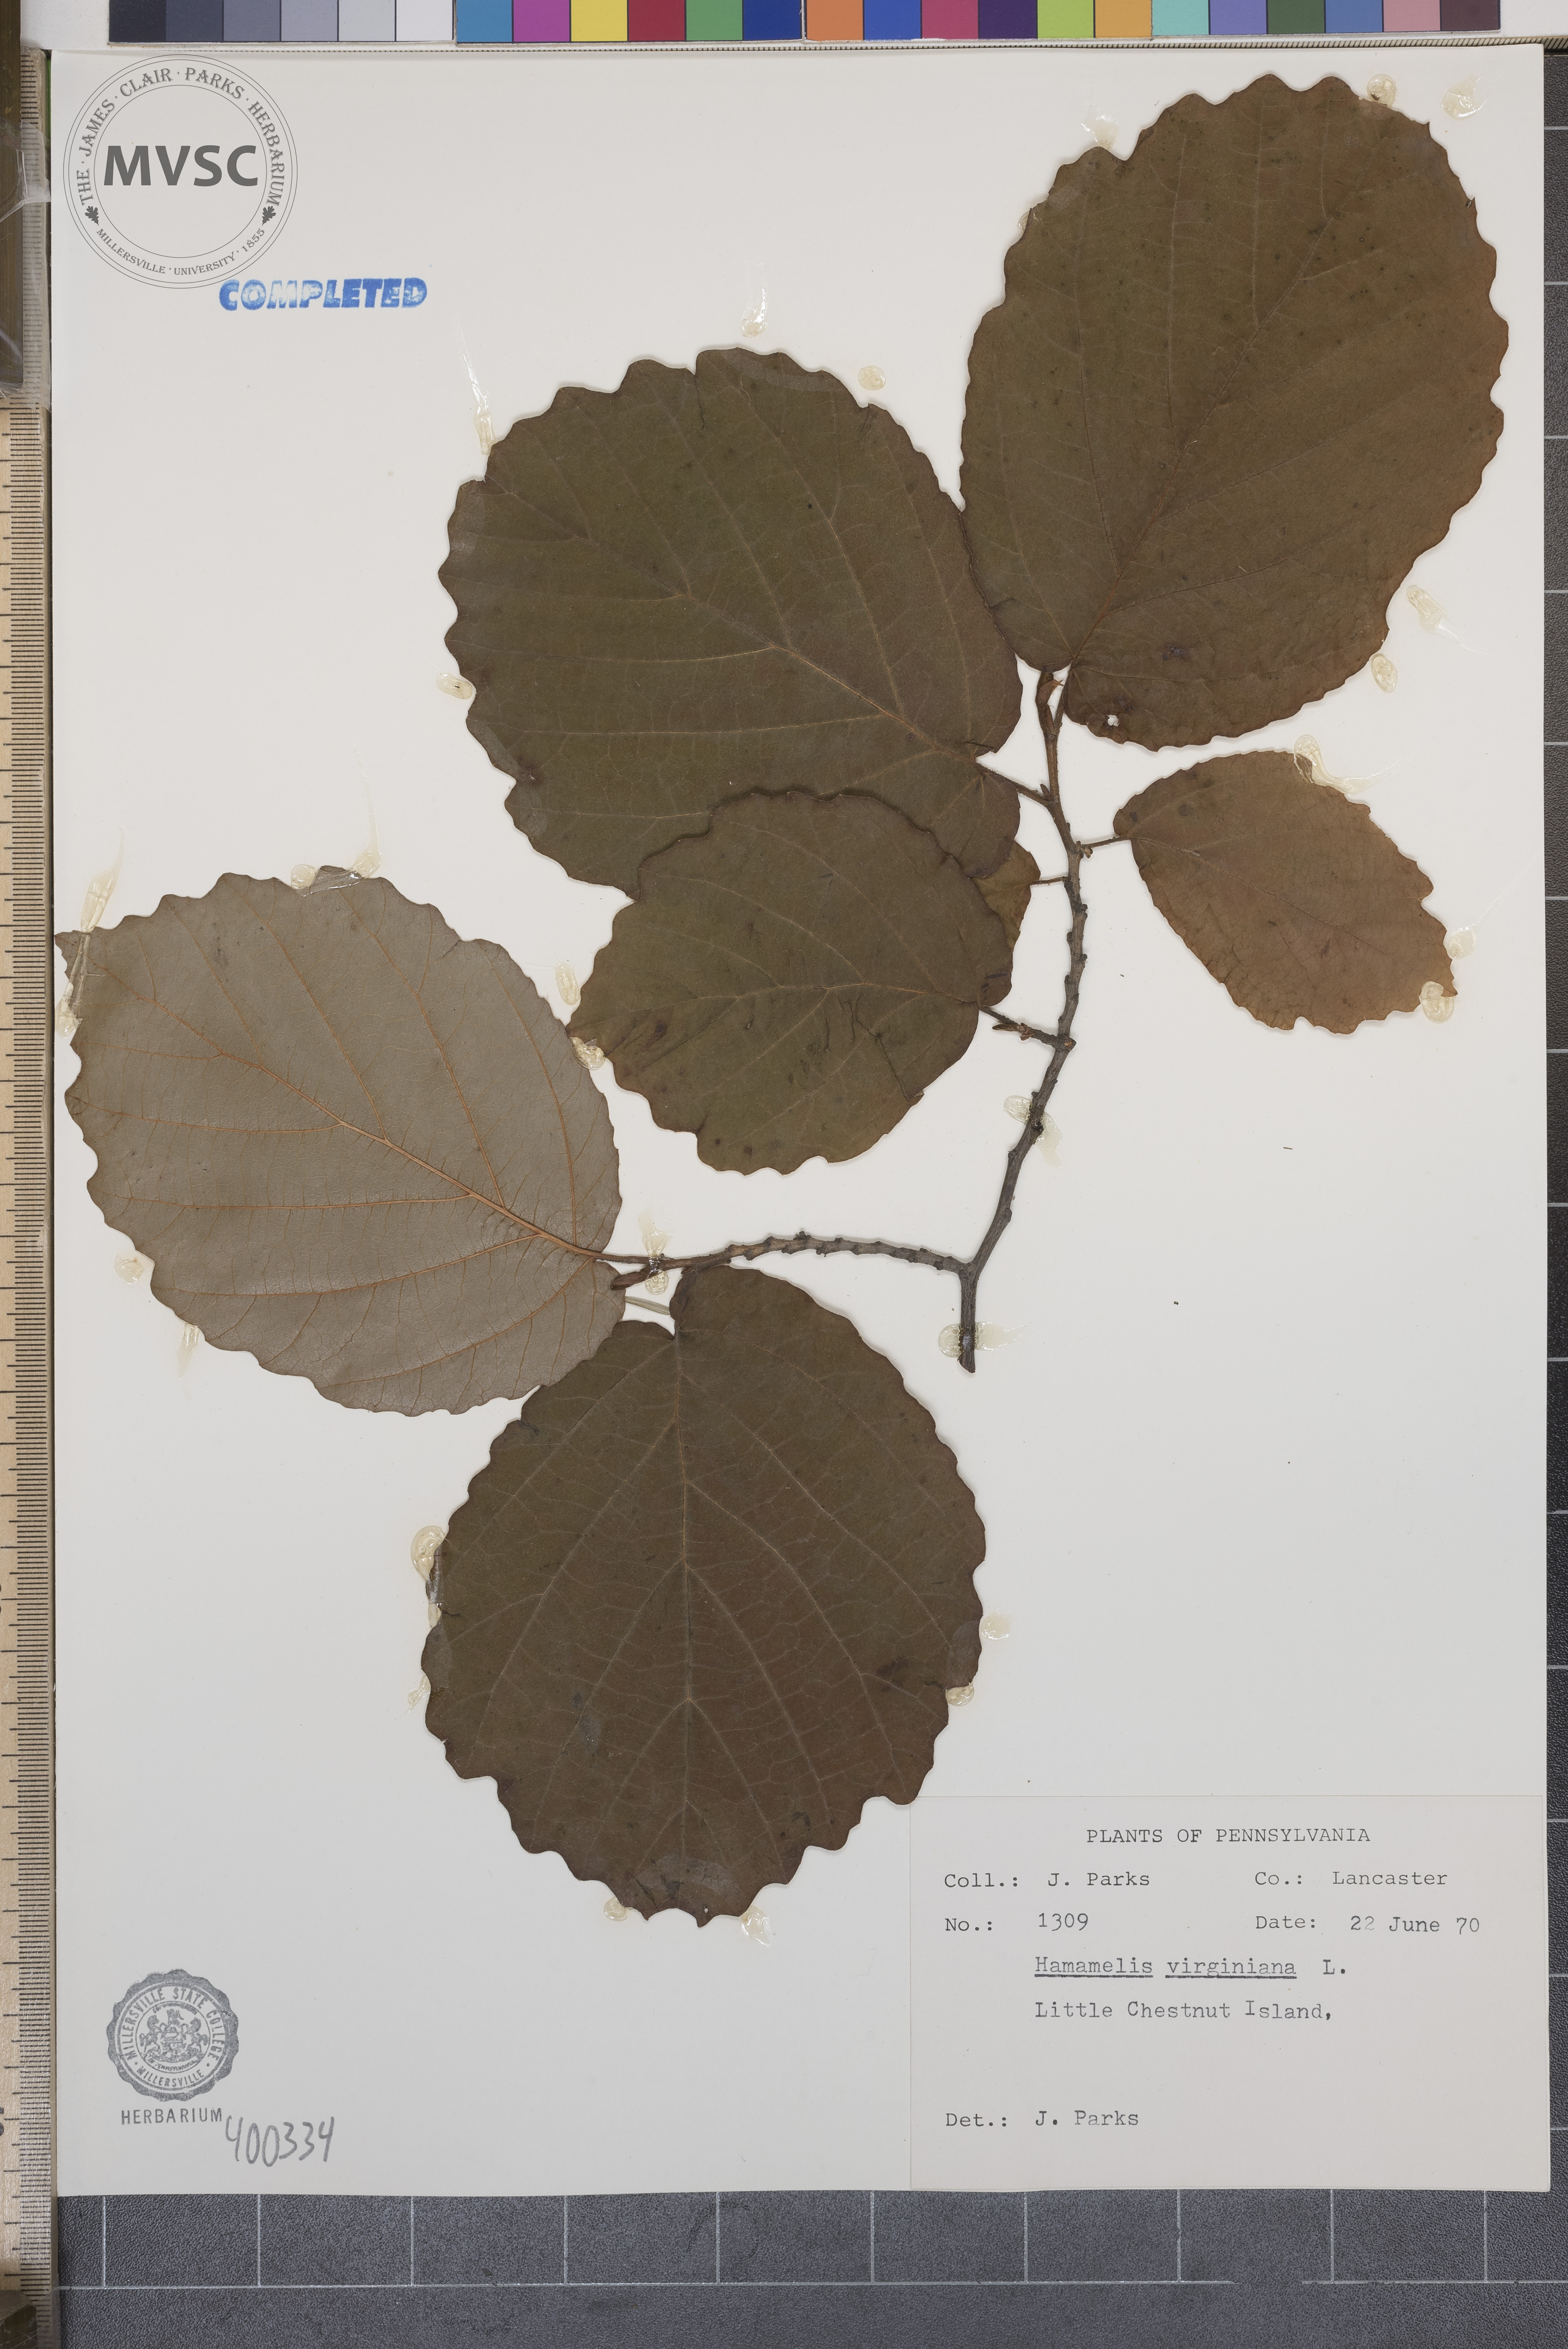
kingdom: Plantae
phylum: Tracheophyta
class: Magnoliopsida
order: Saxifragales
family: Hamamelidaceae
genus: Hamamelis
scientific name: Hamamelis virginiana
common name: witch-hazel
